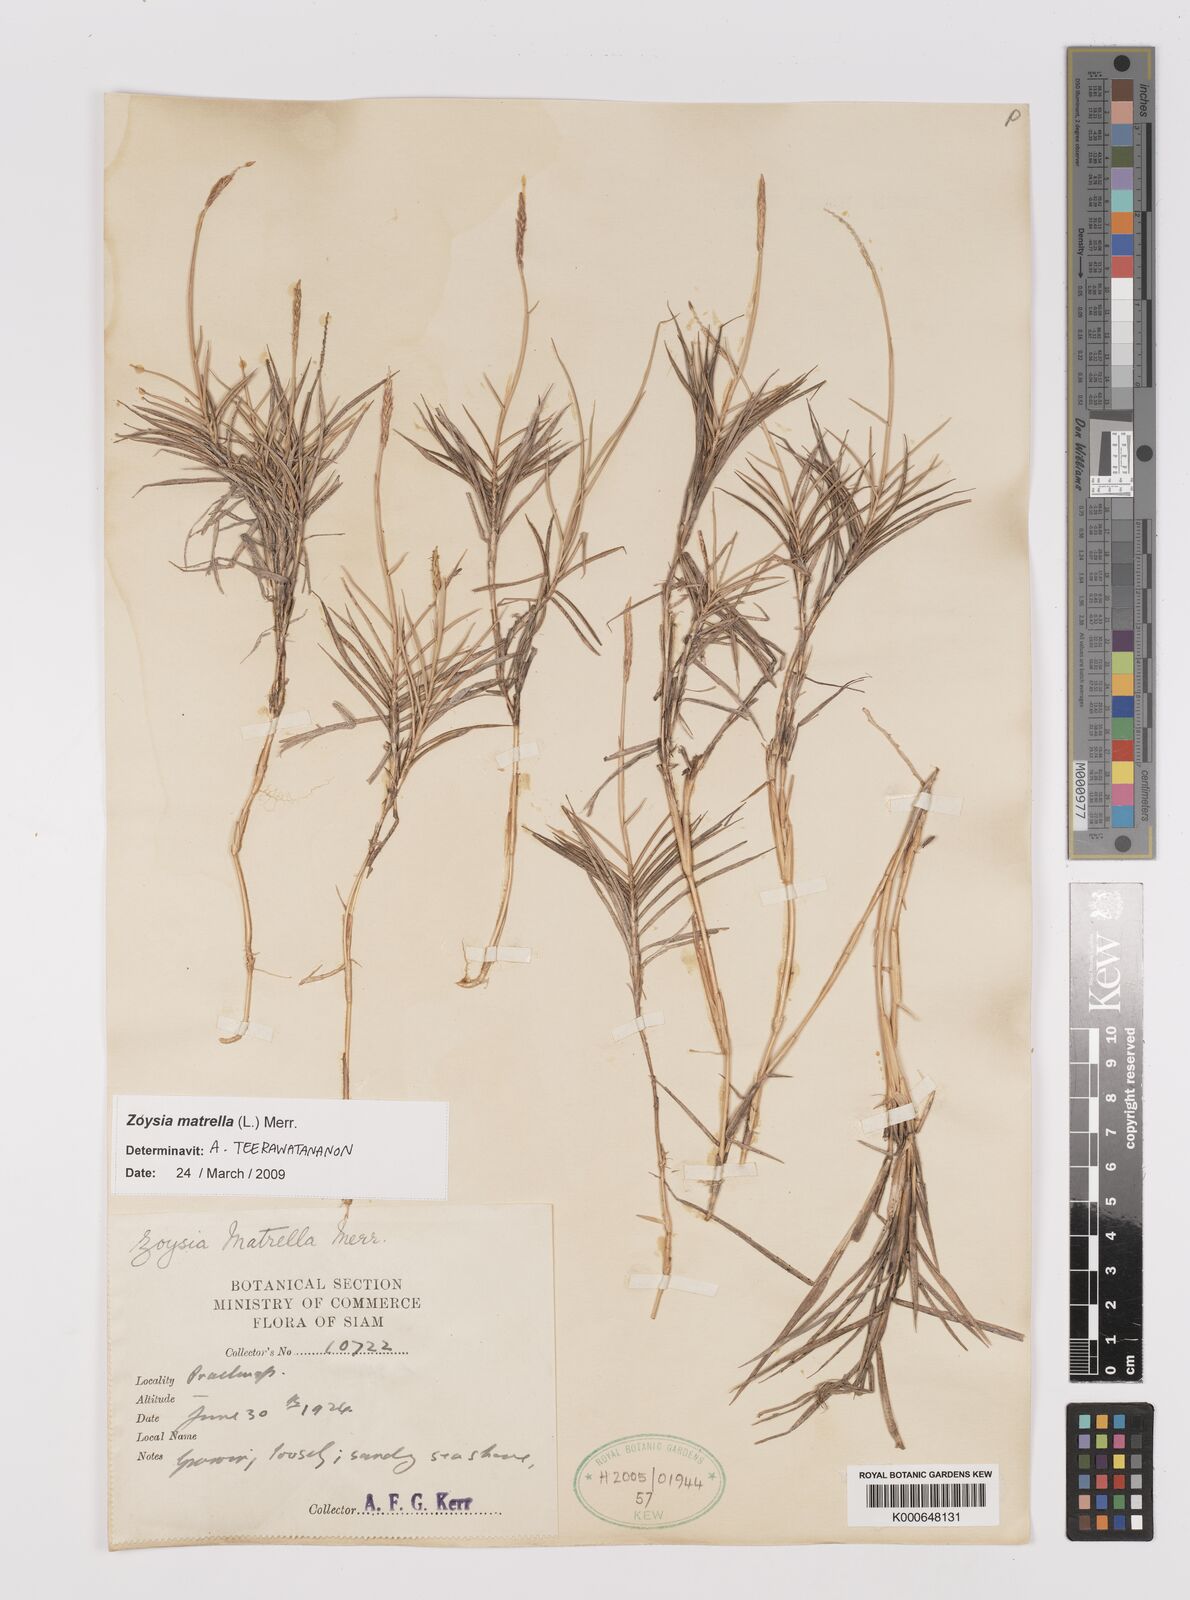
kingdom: Plantae
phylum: Tracheophyta
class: Liliopsida
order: Poales
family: Poaceae
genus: Zoysia
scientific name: Zoysia matrella
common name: Manila grass
